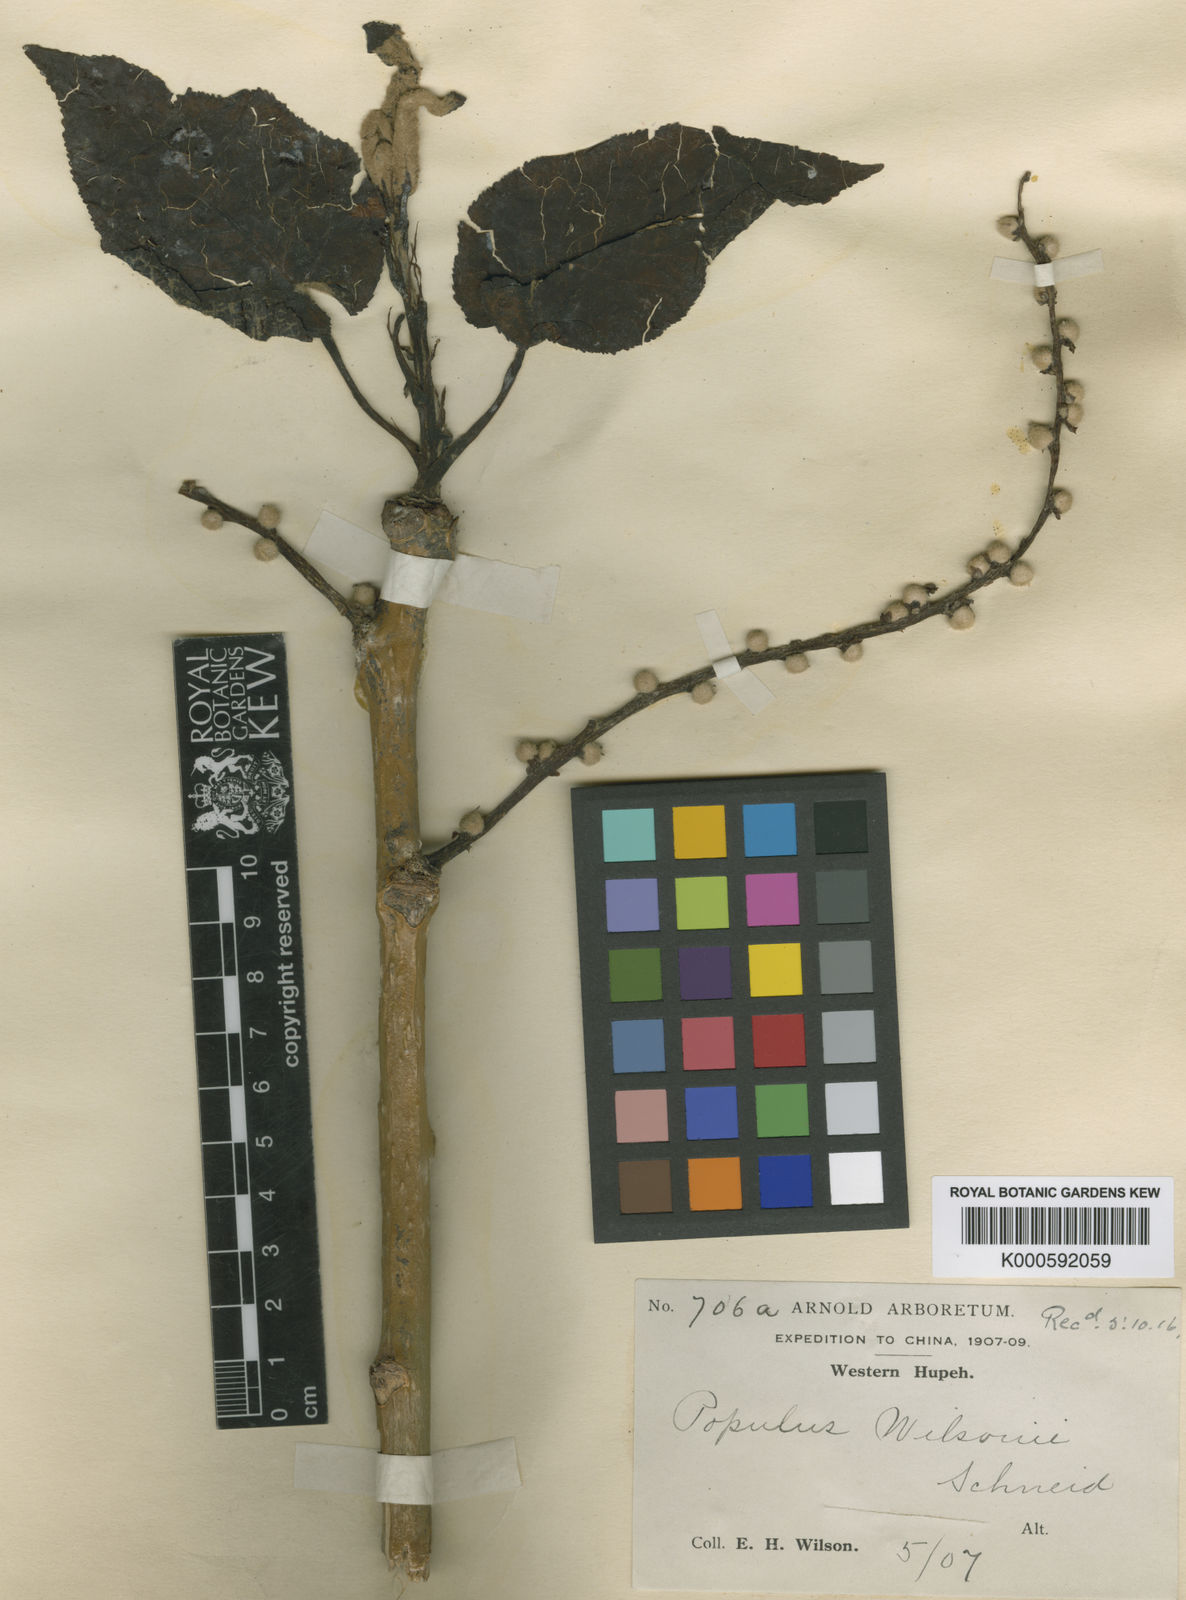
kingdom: Plantae
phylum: Tracheophyta
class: Magnoliopsida
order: Malpighiales
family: Salicaceae
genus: Populus
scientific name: Populus wilsonii
